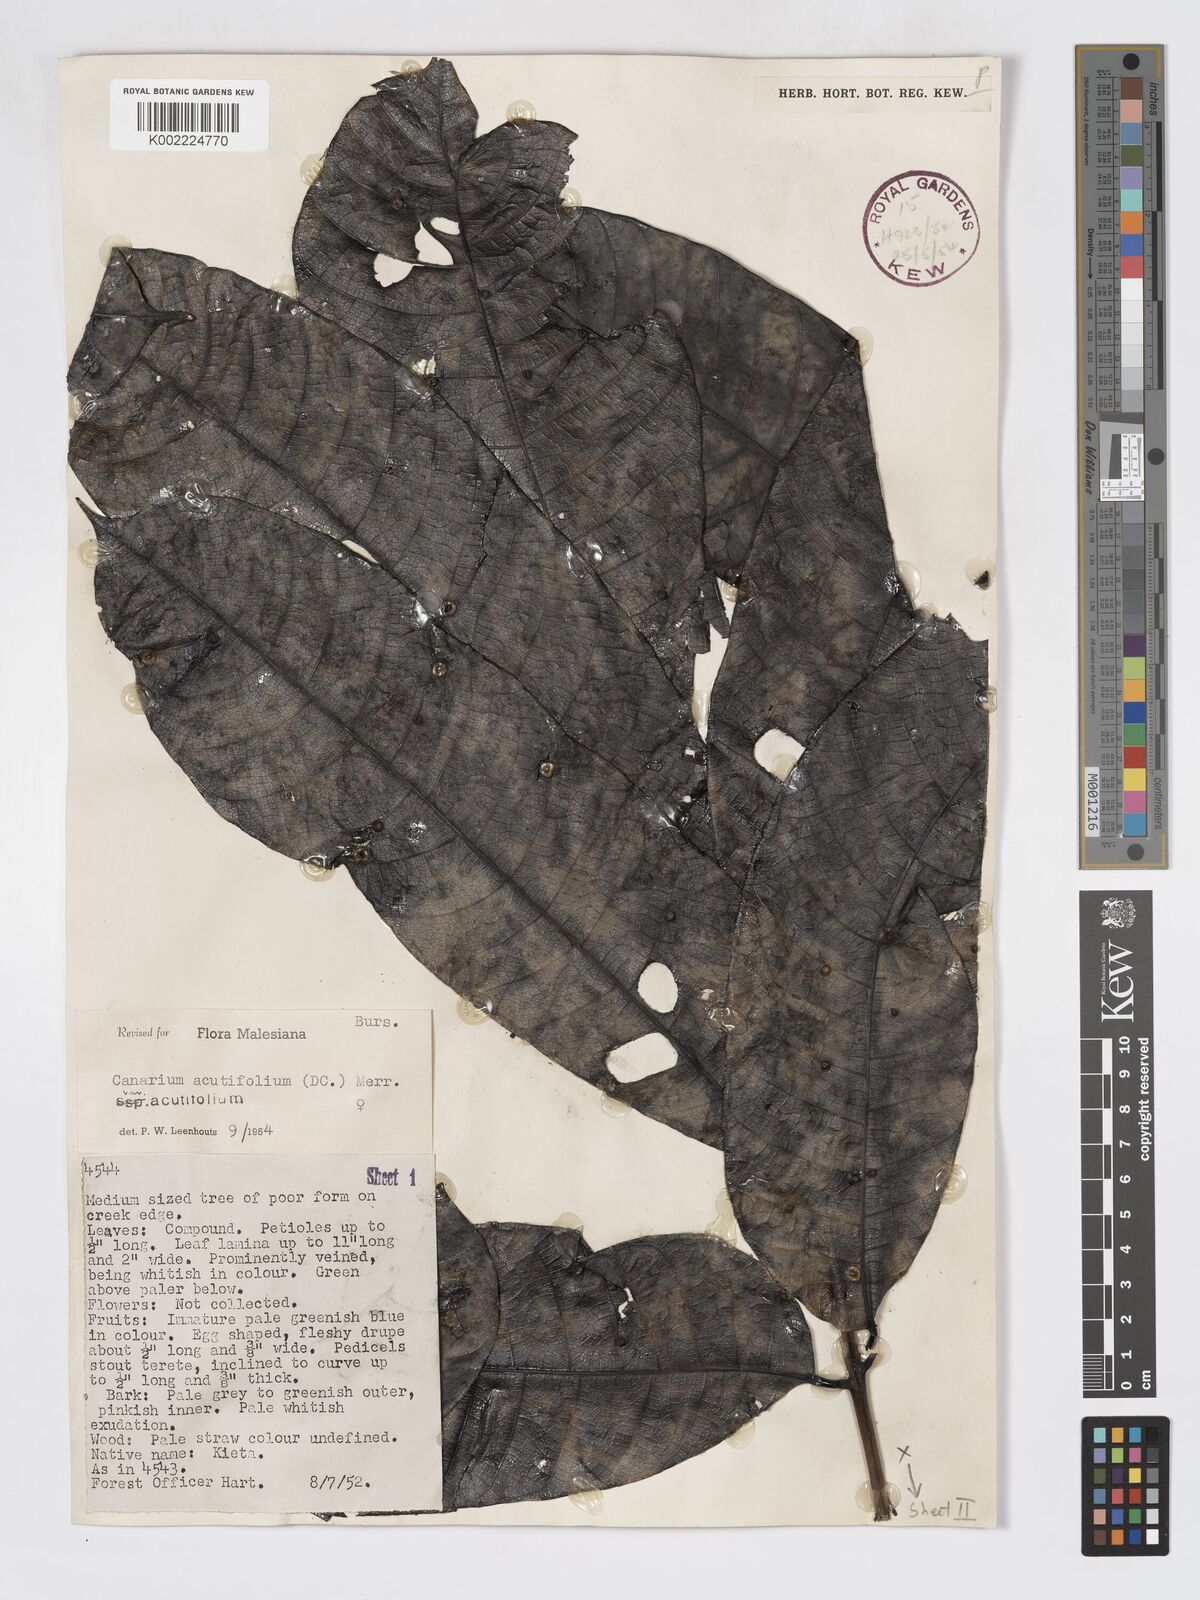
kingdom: Plantae
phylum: Tracheophyta
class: Magnoliopsida
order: Sapindales
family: Burseraceae
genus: Canarium
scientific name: Canarium acutifolium
